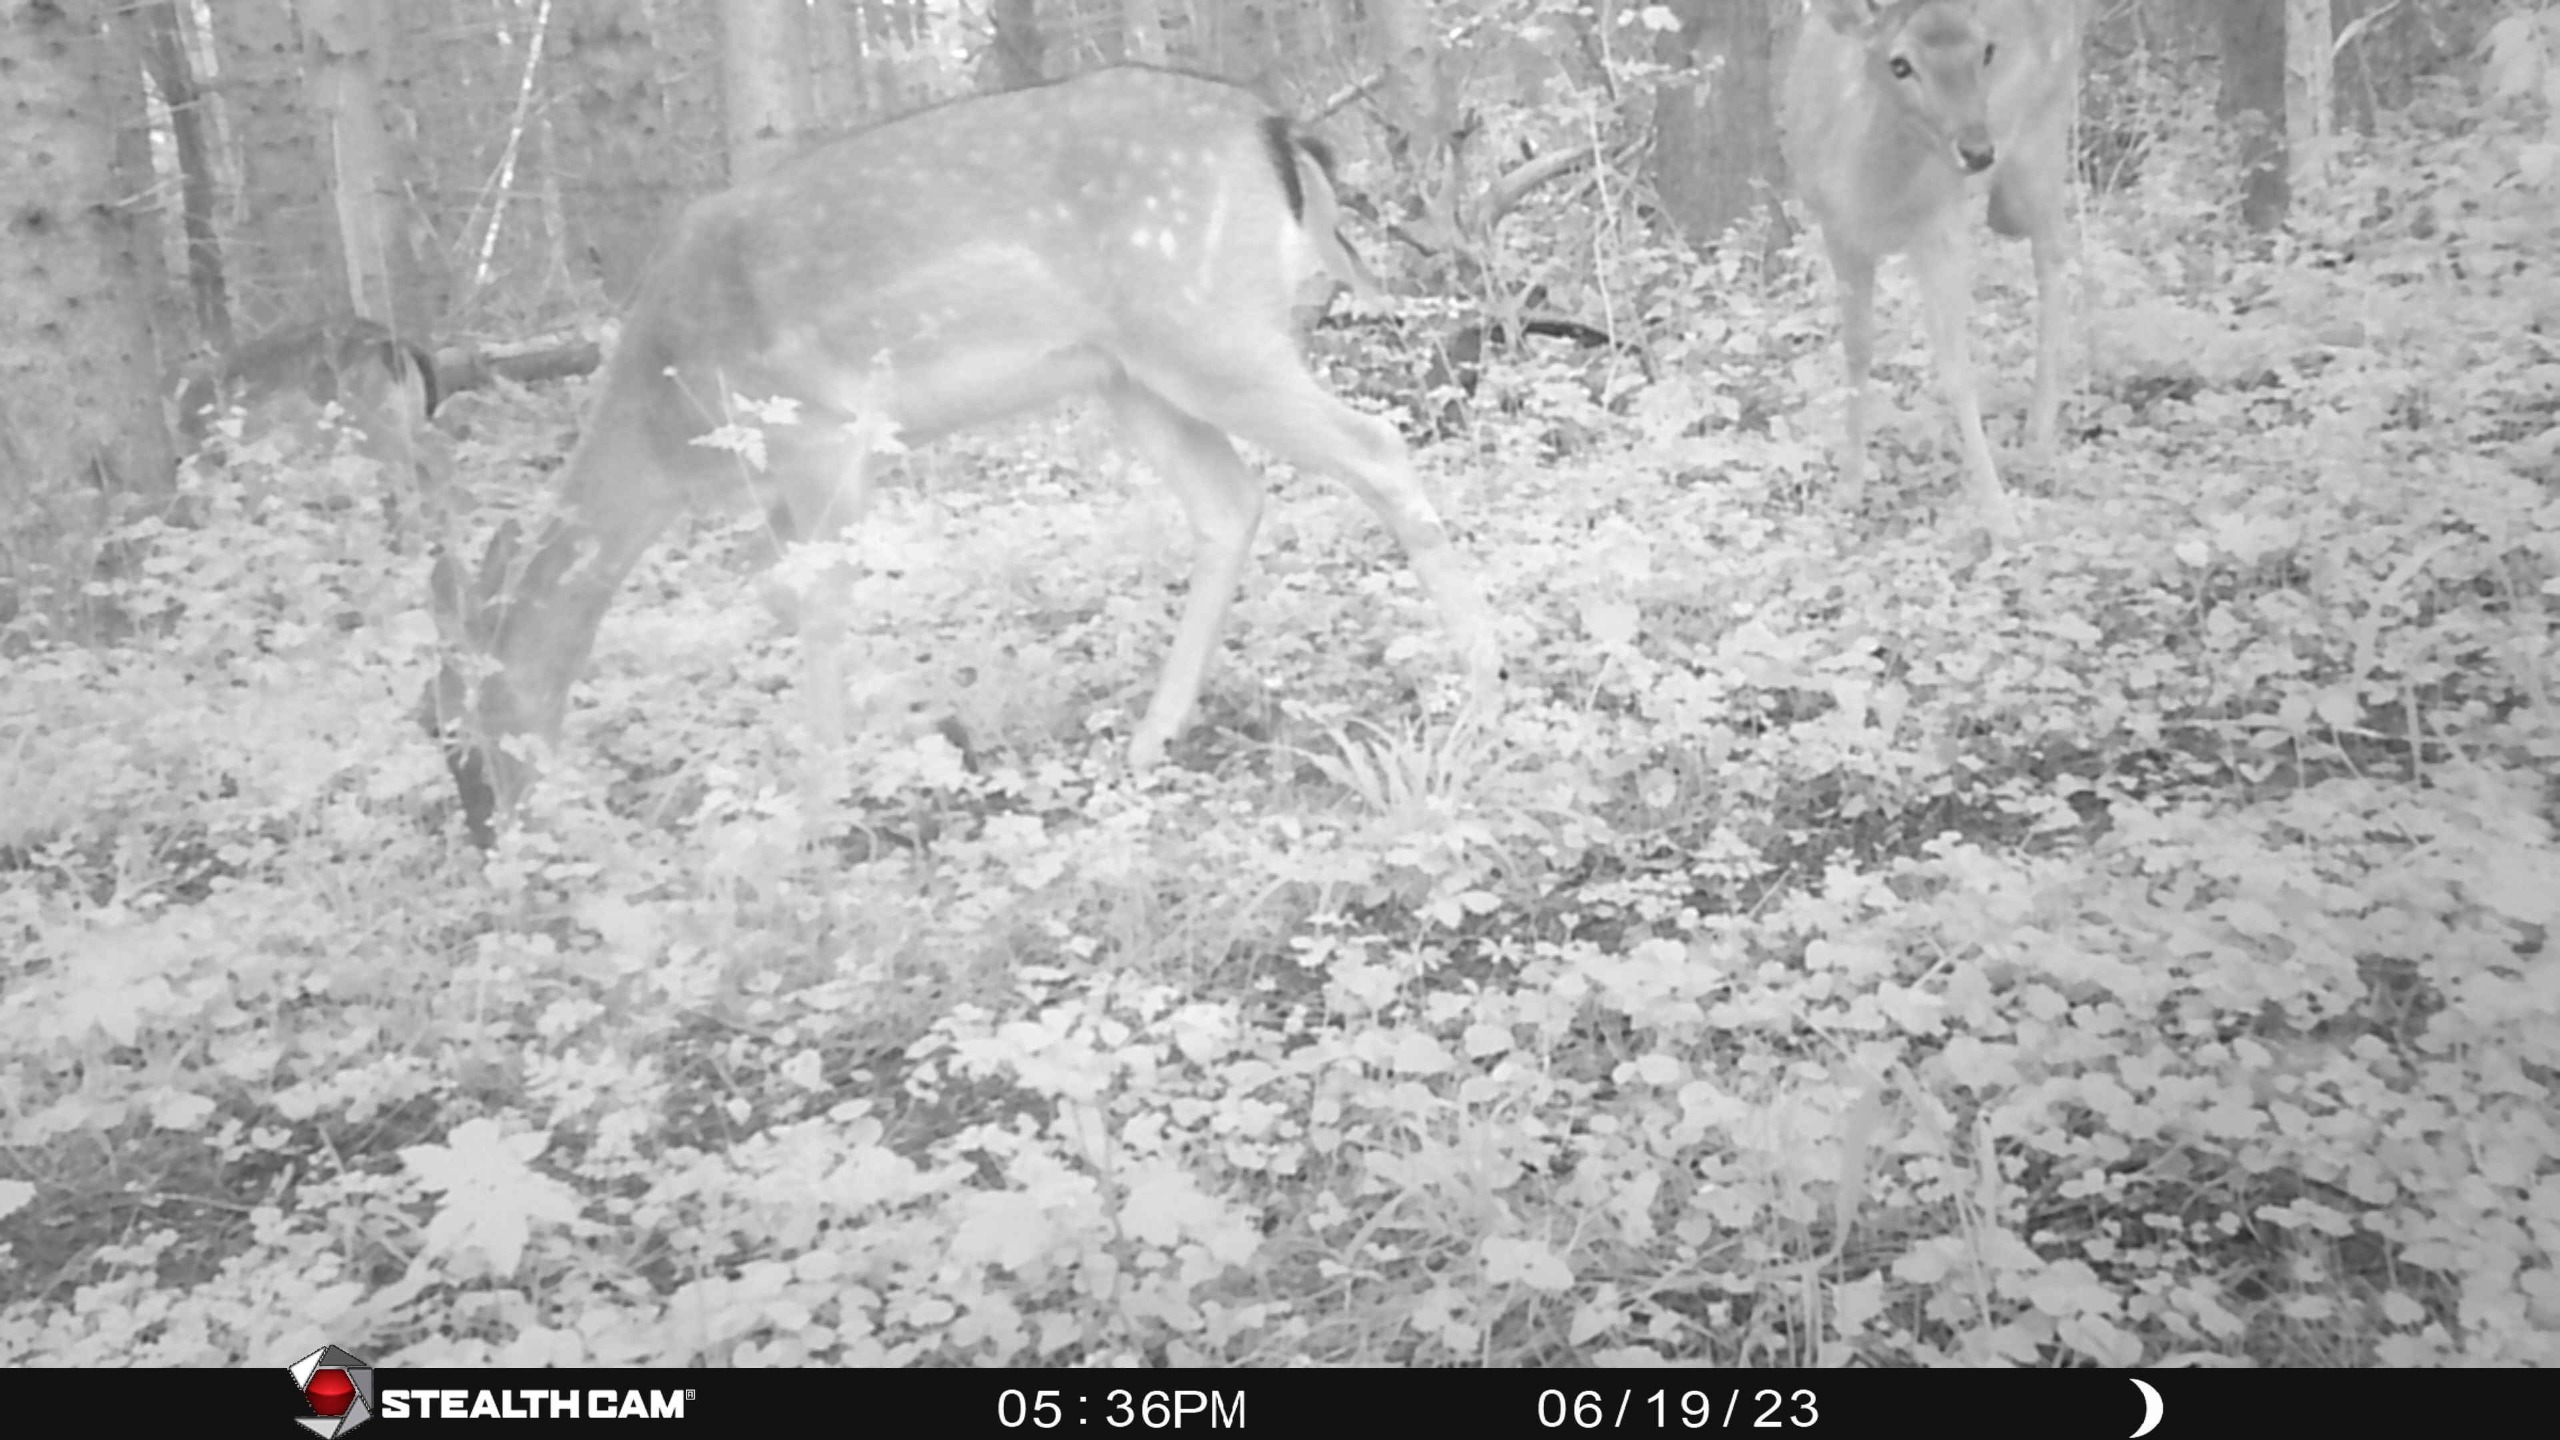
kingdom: Animalia
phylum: Chordata
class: Mammalia
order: Artiodactyla
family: Cervidae
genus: Dama
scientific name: Dama dama
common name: Dådyr
